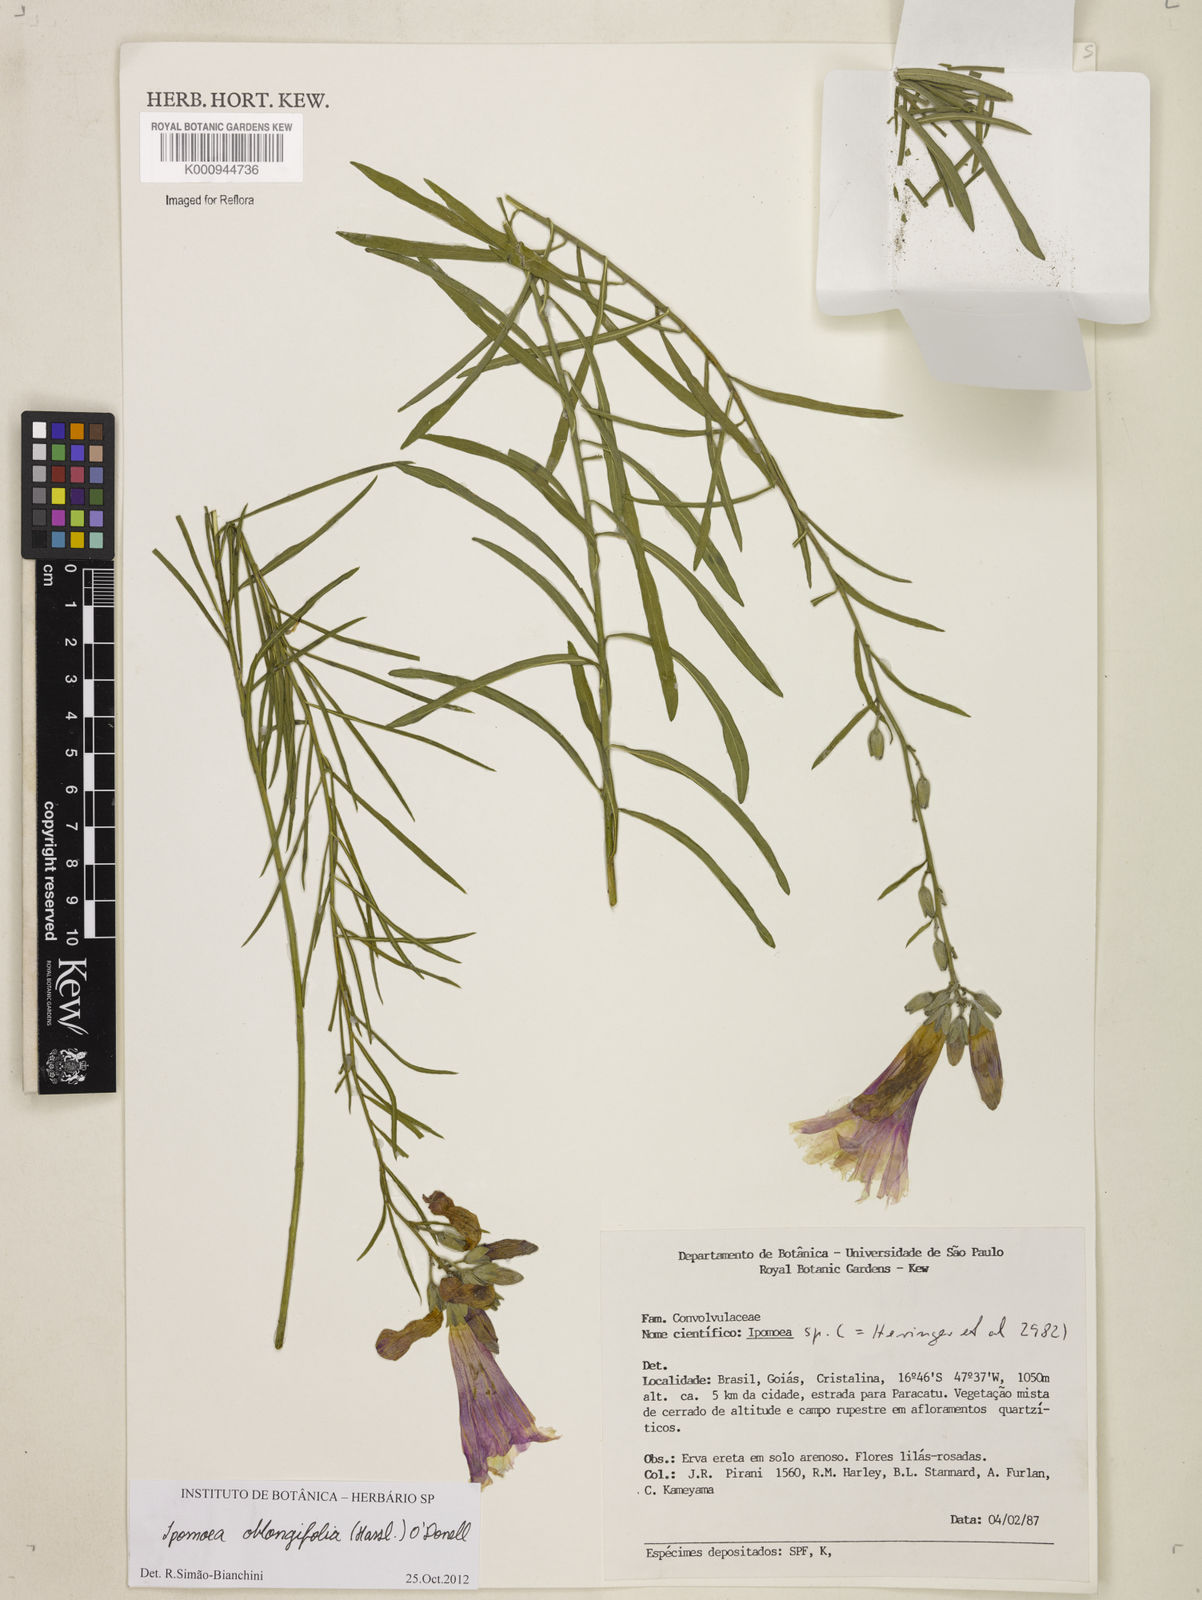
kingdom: Plantae
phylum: Tracheophyta
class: Magnoliopsida
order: Solanales
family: Convolvulaceae
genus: Ipomoea
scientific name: Ipomoea uninervis
